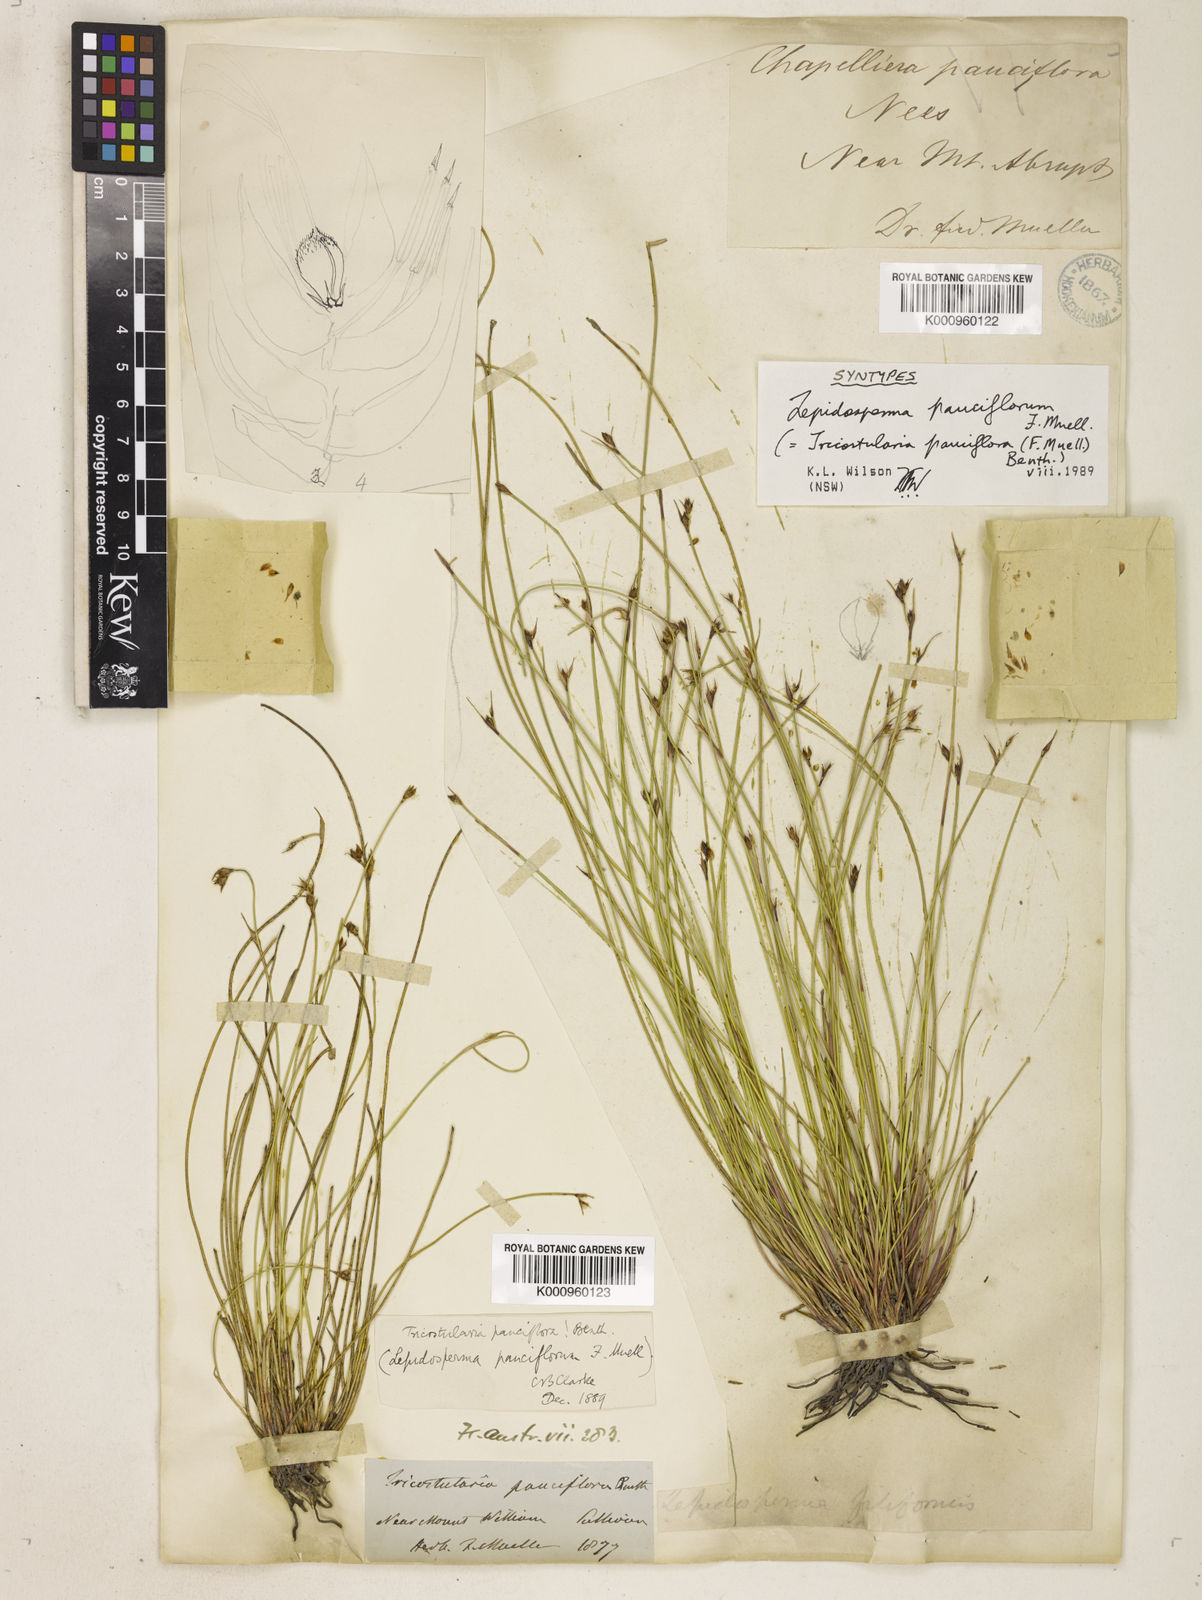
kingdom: Plantae
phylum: Tracheophyta
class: Liliopsida
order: Poales
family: Cyperaceae
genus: Tricostularia
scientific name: Tricostularia pauciflora
